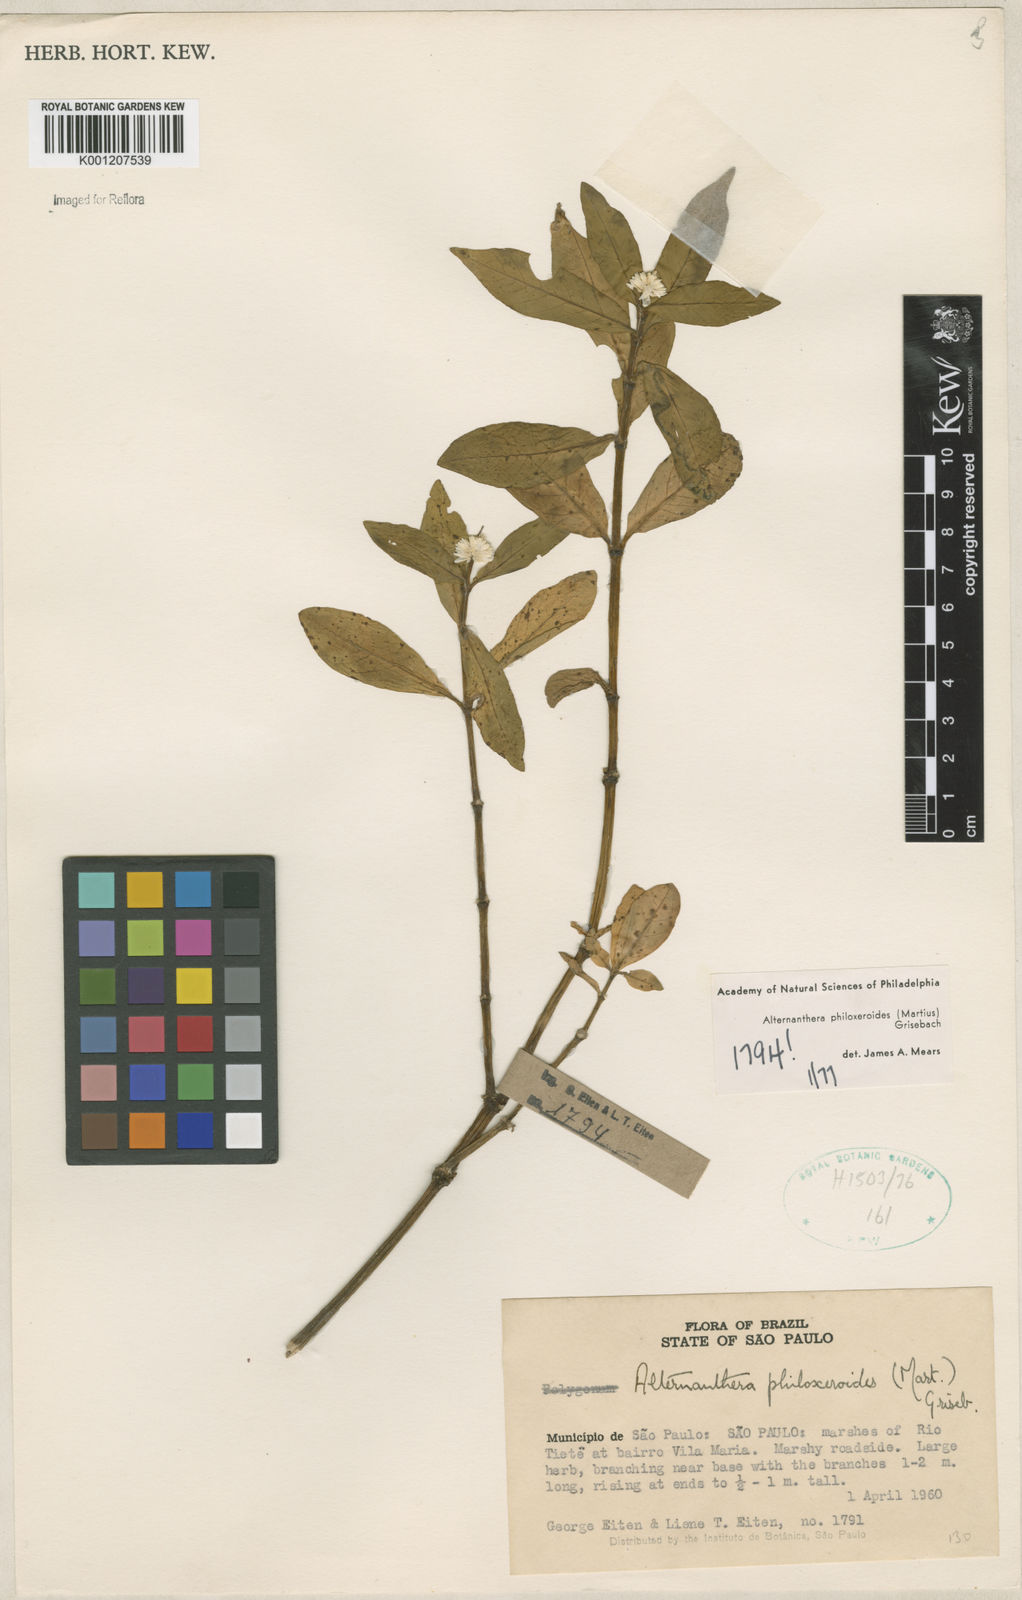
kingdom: Plantae
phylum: Tracheophyta
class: Magnoliopsida
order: Caryophyllales
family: Amaranthaceae
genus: Alternanthera
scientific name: Alternanthera philoxeroides
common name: Alligatorweed
